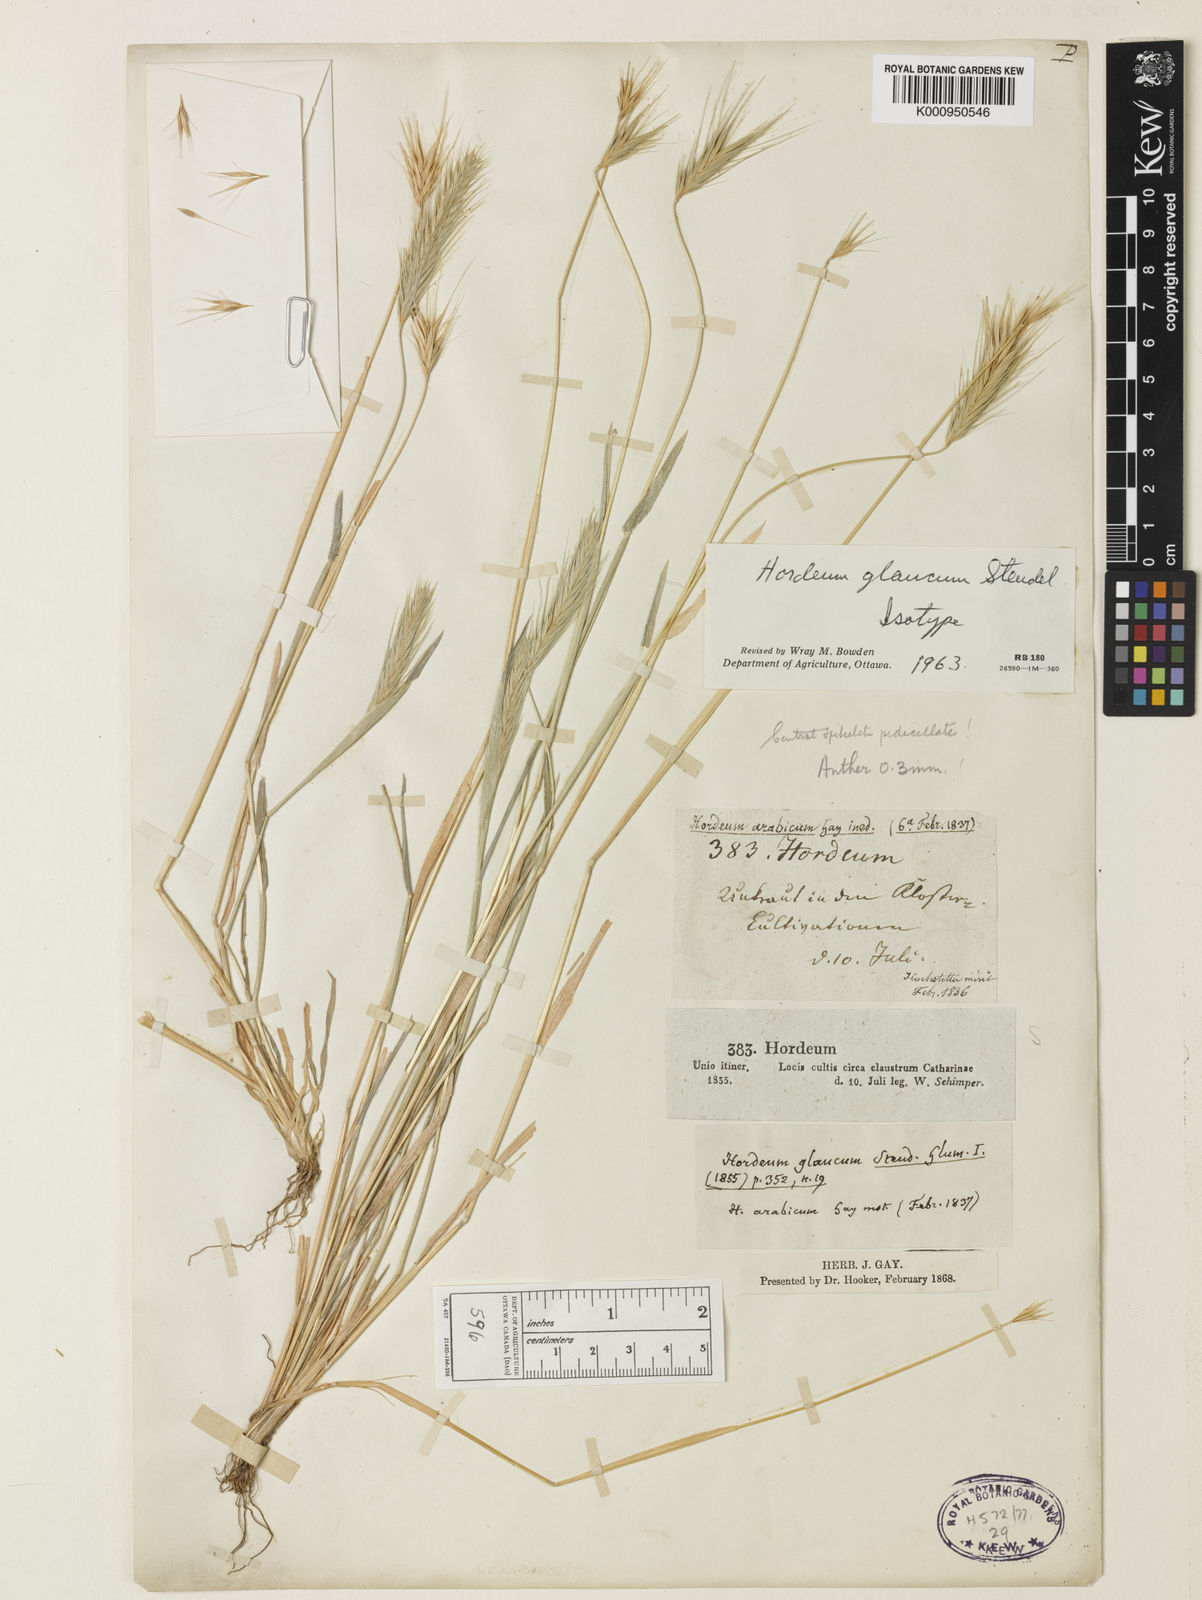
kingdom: Plantae
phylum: Tracheophyta
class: Liliopsida
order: Poales
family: Poaceae
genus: Hordeum
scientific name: Hordeum murinum
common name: Wall barley
